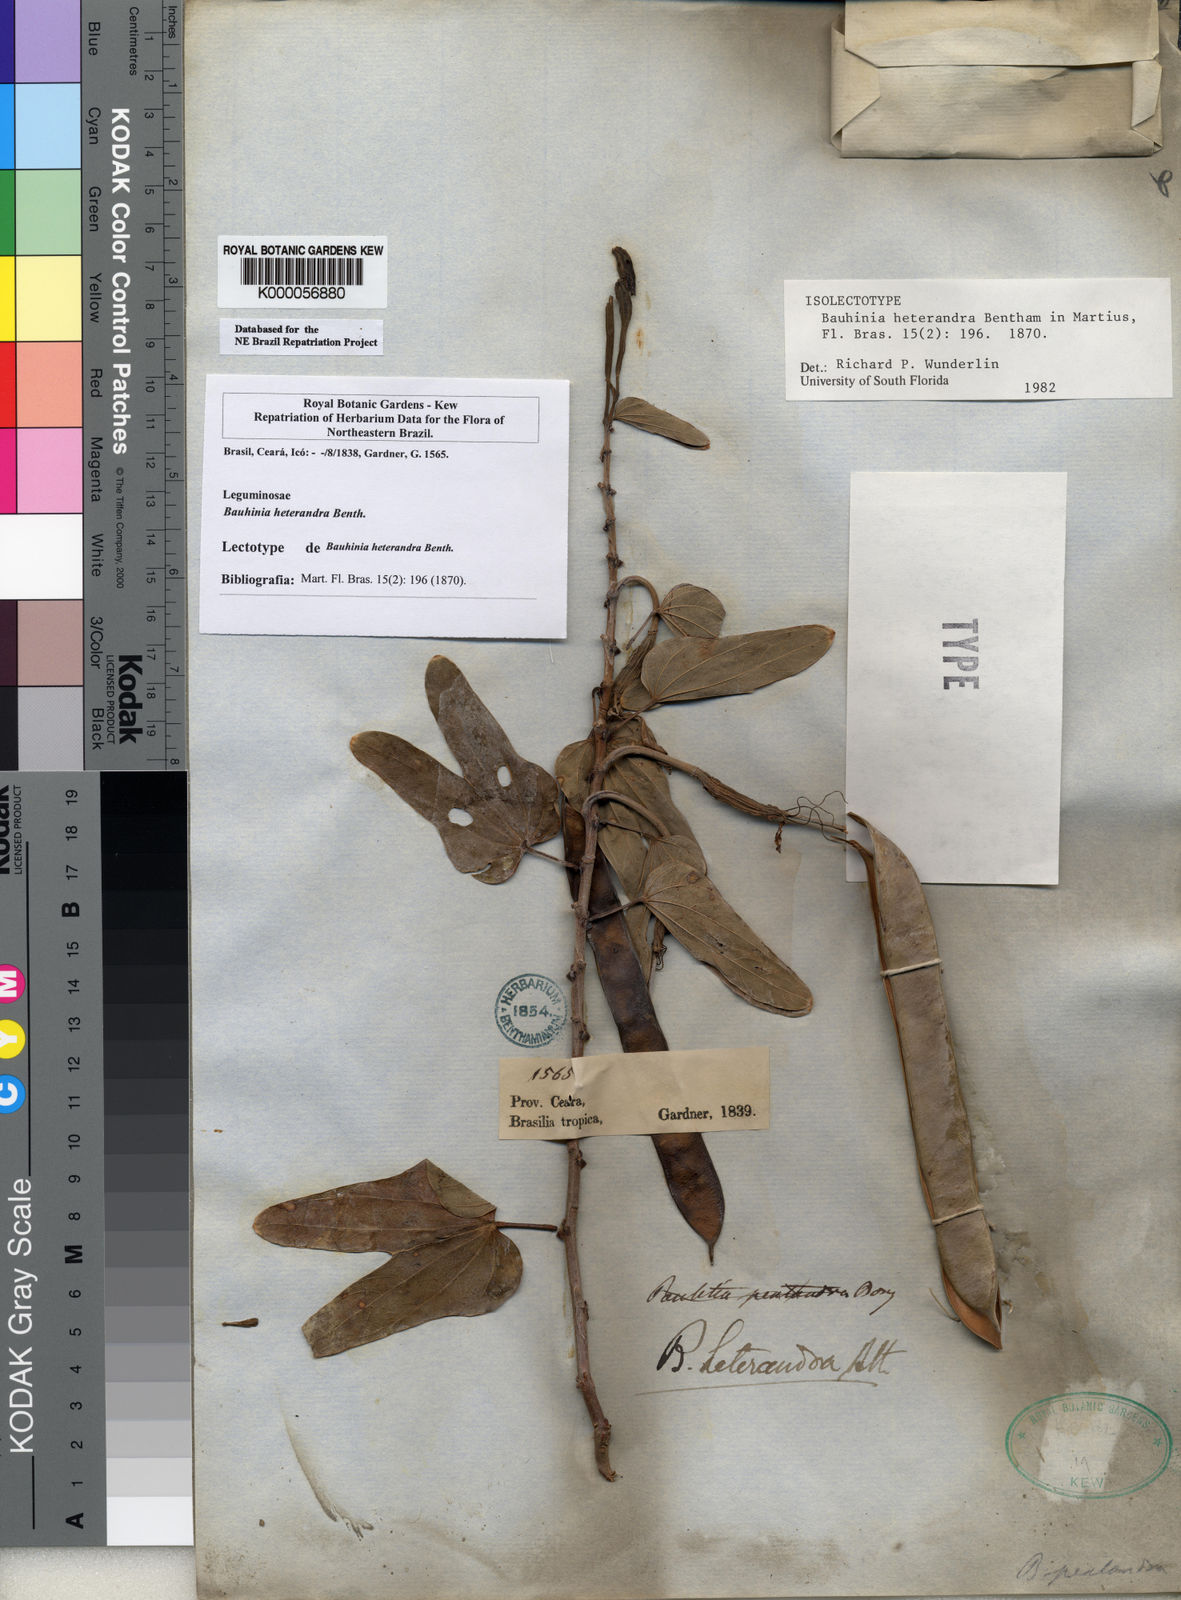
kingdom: Plantae
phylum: Tracheophyta
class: Magnoliopsida
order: Fabales
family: Fabaceae
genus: Bauhinia
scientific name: Bauhinia pentandra
